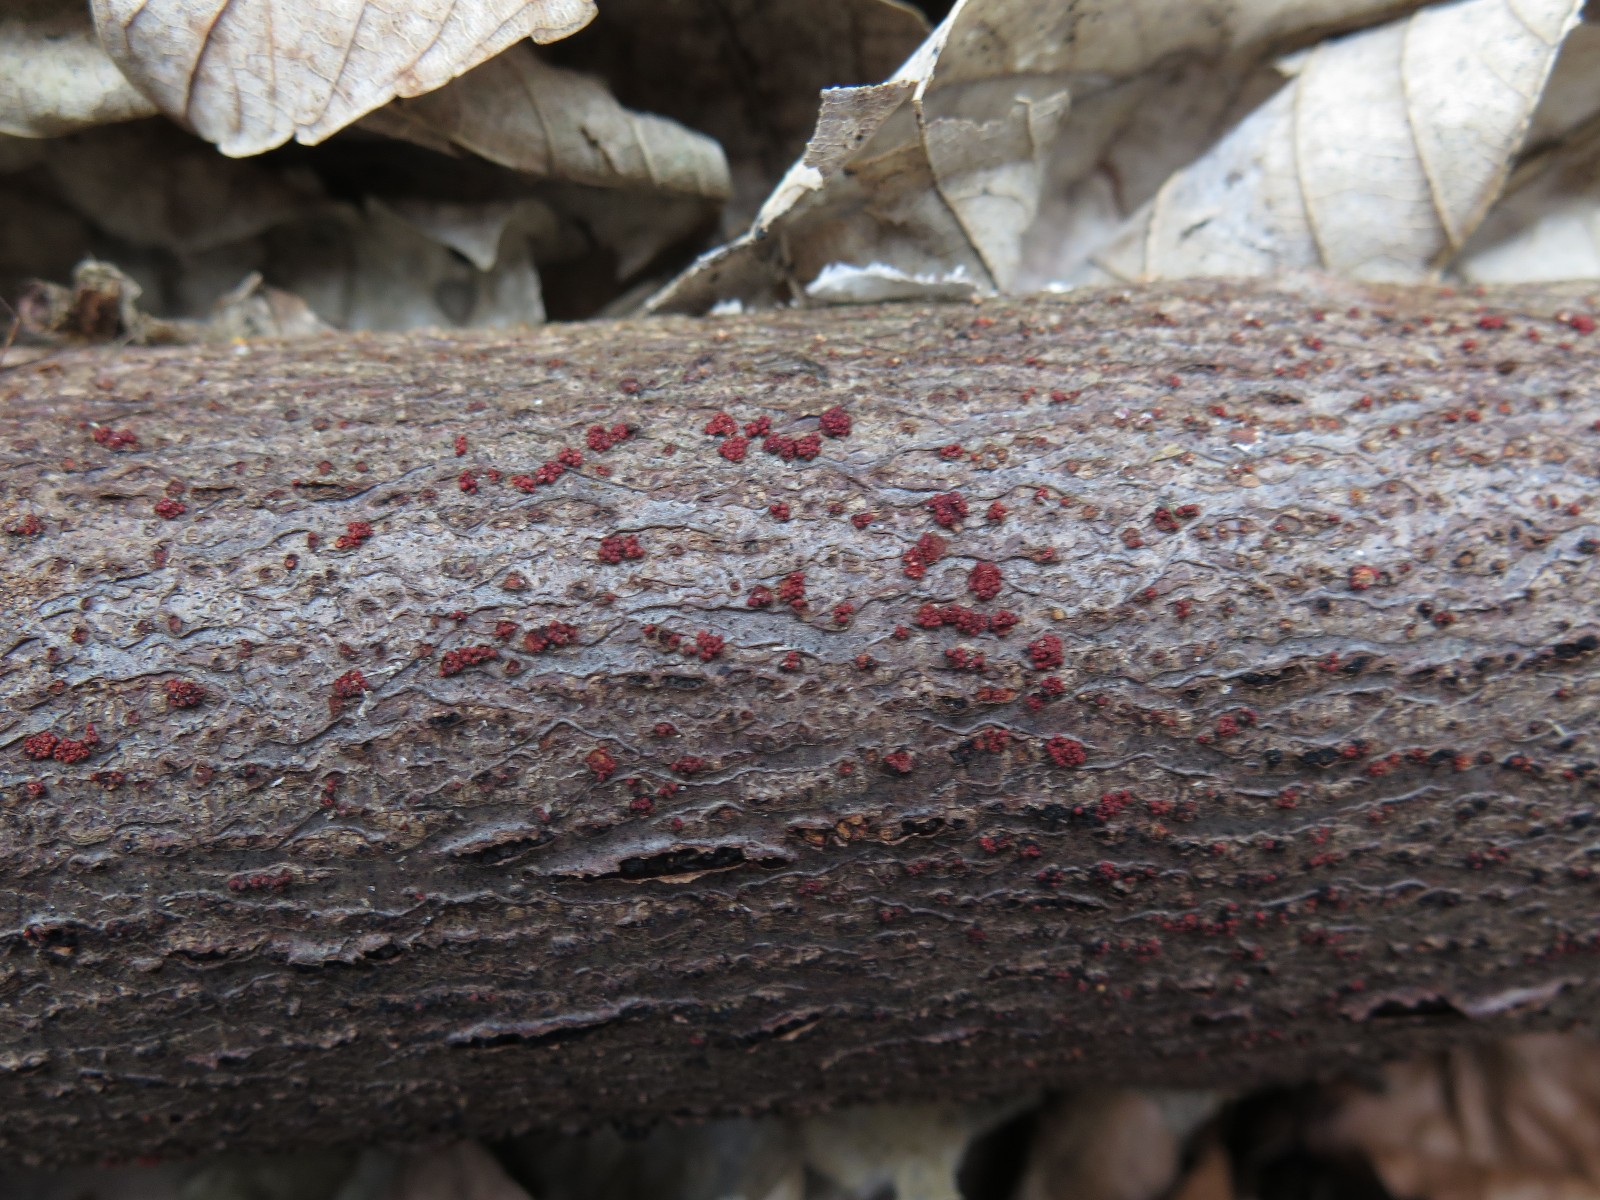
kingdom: Fungi
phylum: Ascomycota
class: Sordariomycetes
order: Hypocreales
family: Nectriaceae
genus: Nectria
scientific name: Nectria cinnabarina
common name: almindelig cinnobersvamp
